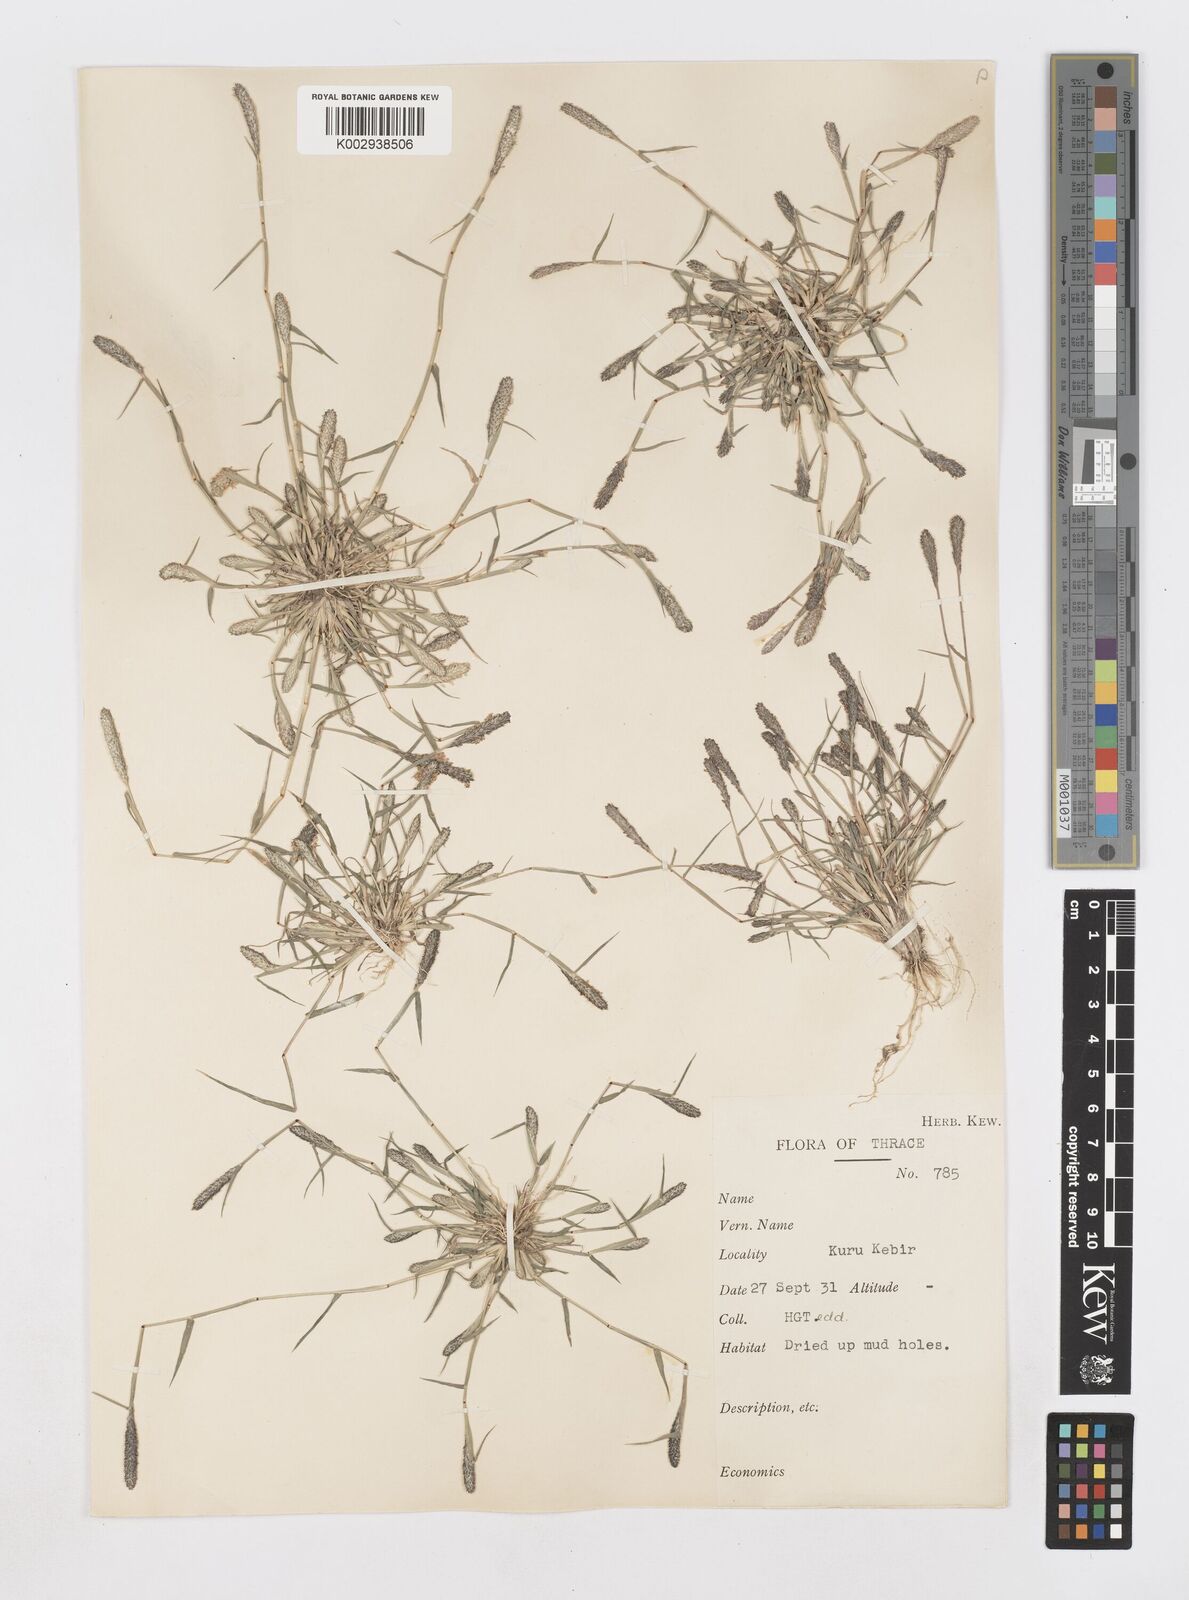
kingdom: Plantae
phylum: Tracheophyta
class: Liliopsida
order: Poales
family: Poaceae
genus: Sporobolus
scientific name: Sporobolus alopecuroides
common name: Foxtail pricklegrass
